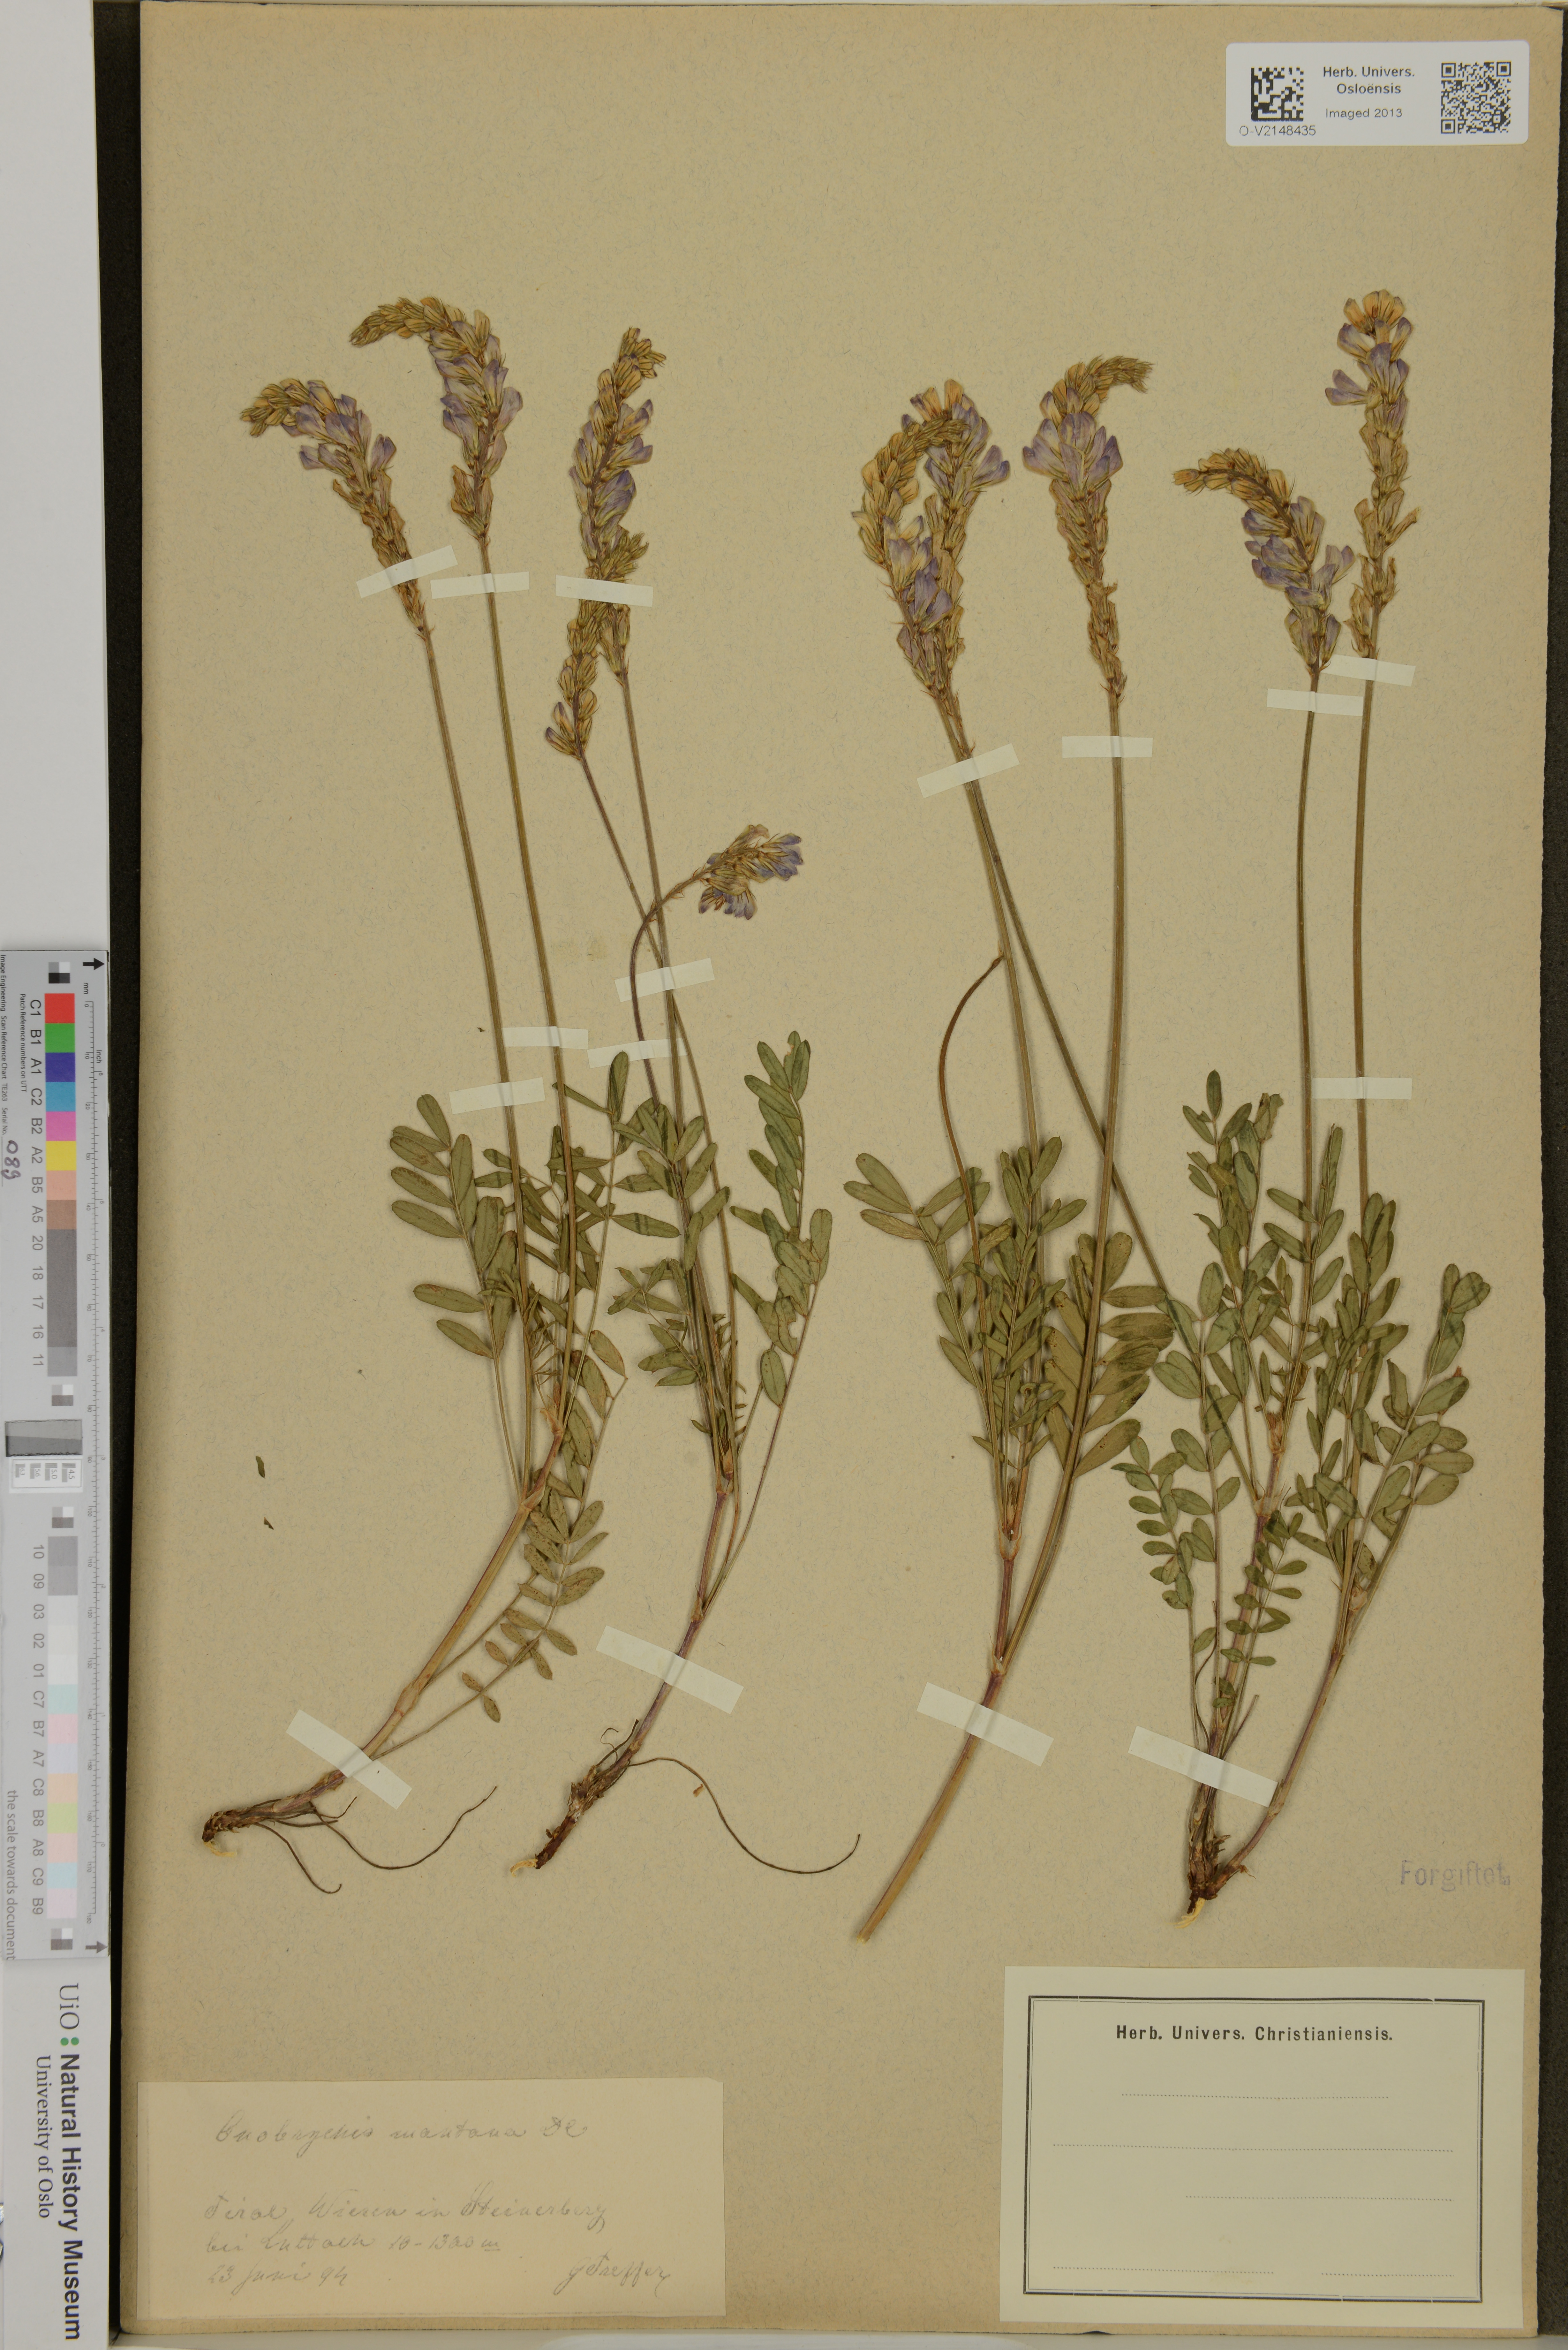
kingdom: Plantae
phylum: Tracheophyta
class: Magnoliopsida
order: Fabales
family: Fabaceae
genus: Onobrychis
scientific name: Onobrychis montana
